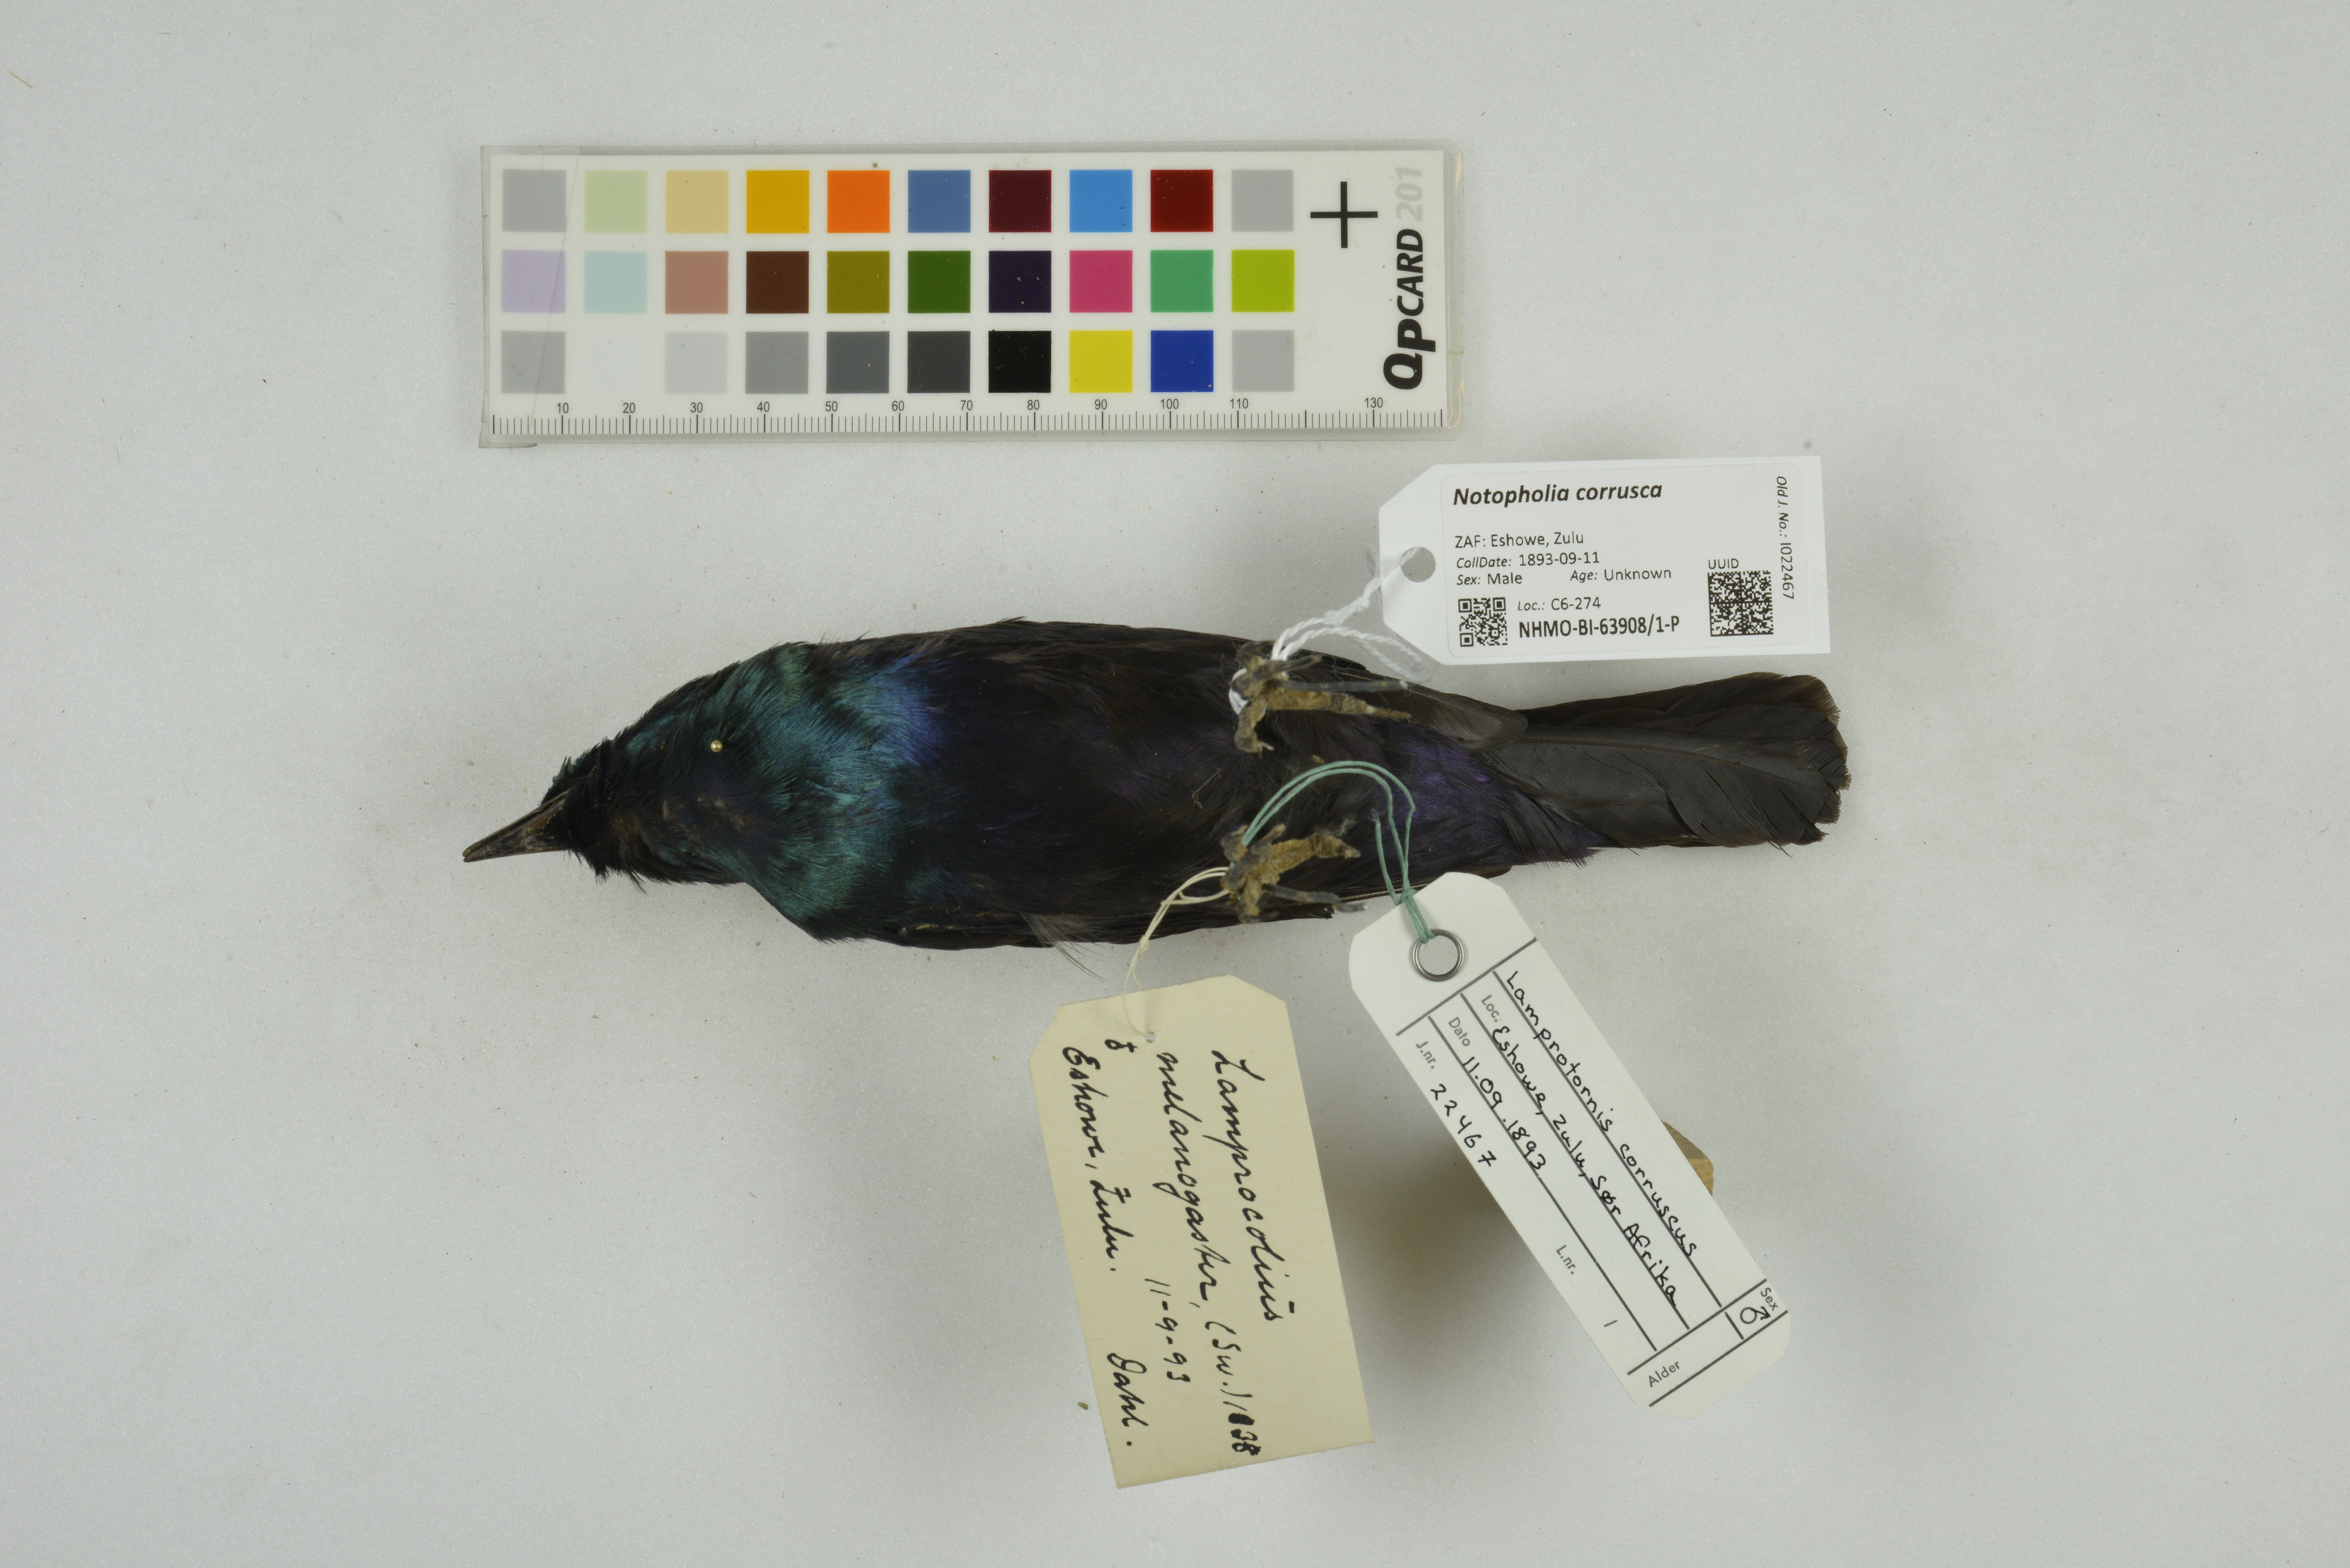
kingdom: Animalia
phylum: Chordata
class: Aves
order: Passeriformes
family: Sturnidae
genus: Notopholia
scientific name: Notopholia corrusca
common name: Black-bellied starling
